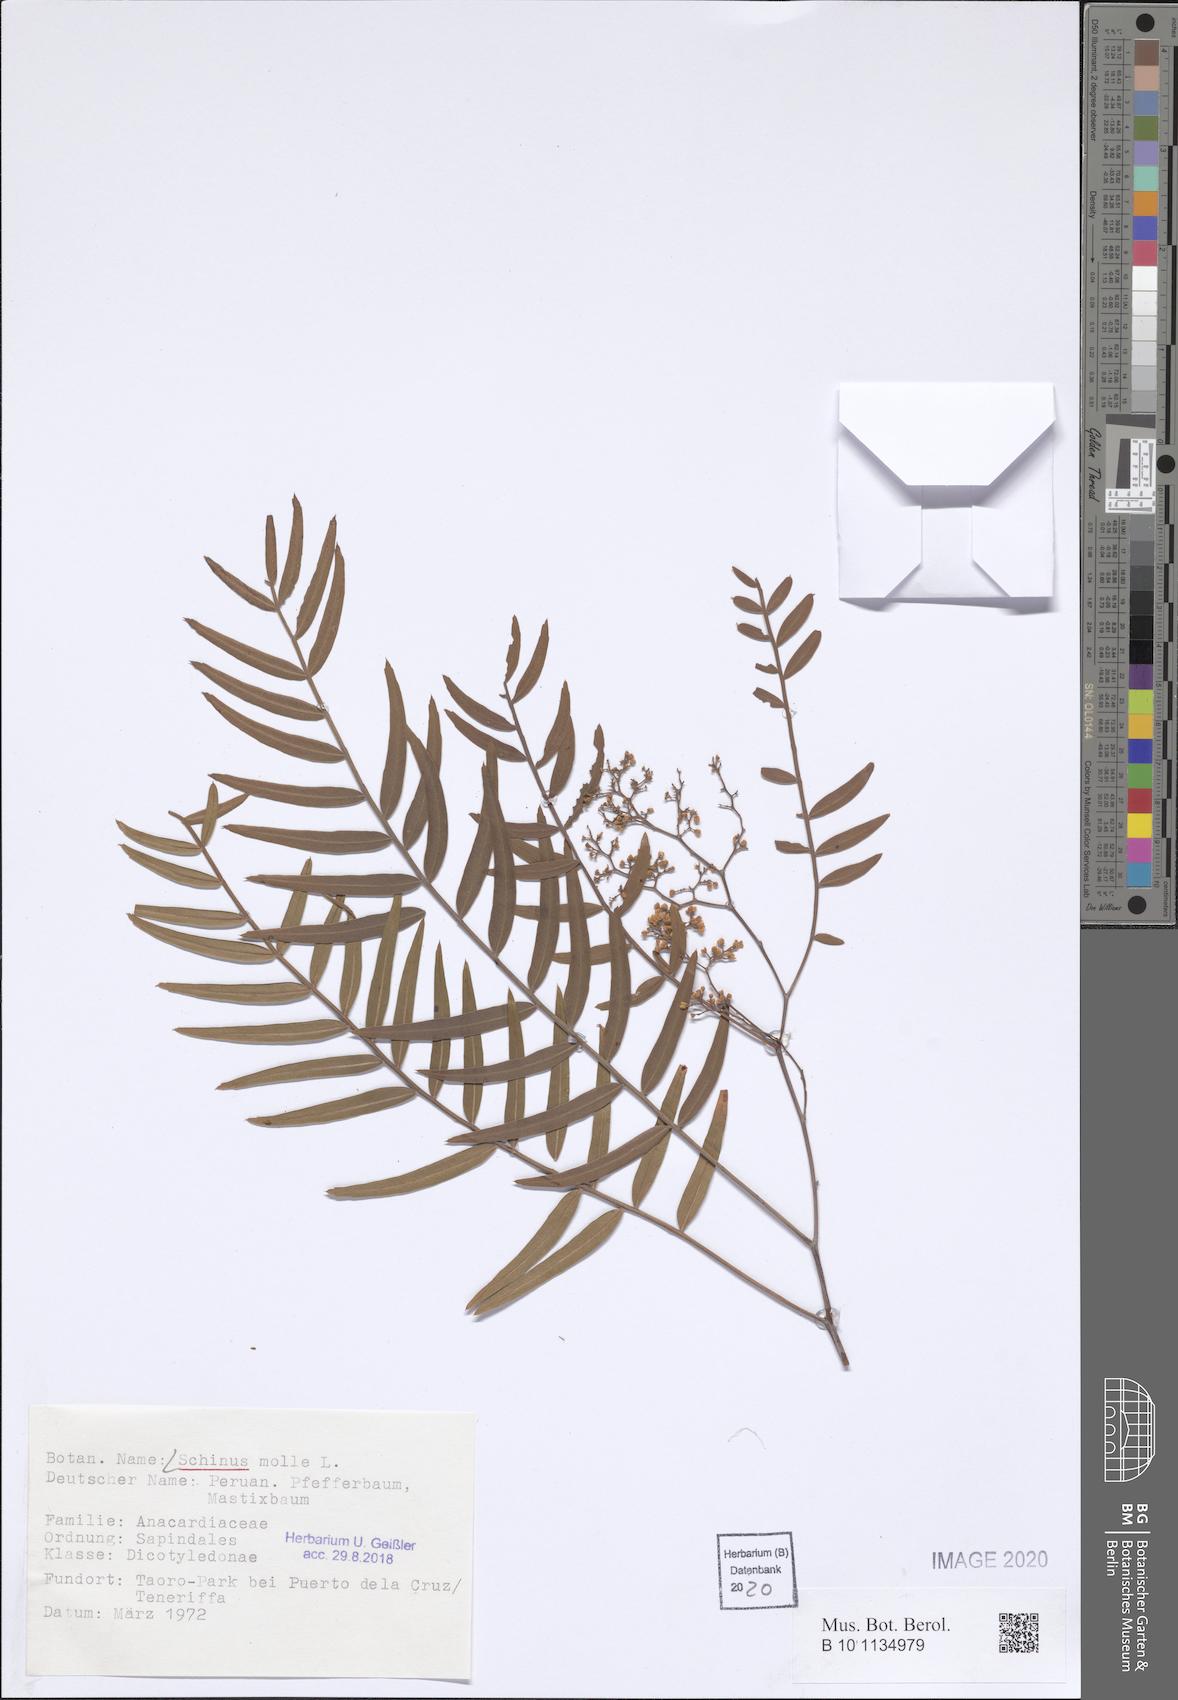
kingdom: Plantae
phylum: Tracheophyta
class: Magnoliopsida
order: Sapindales
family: Anacardiaceae
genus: Schinus
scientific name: Schinus molle
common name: Peruvian peppertree
